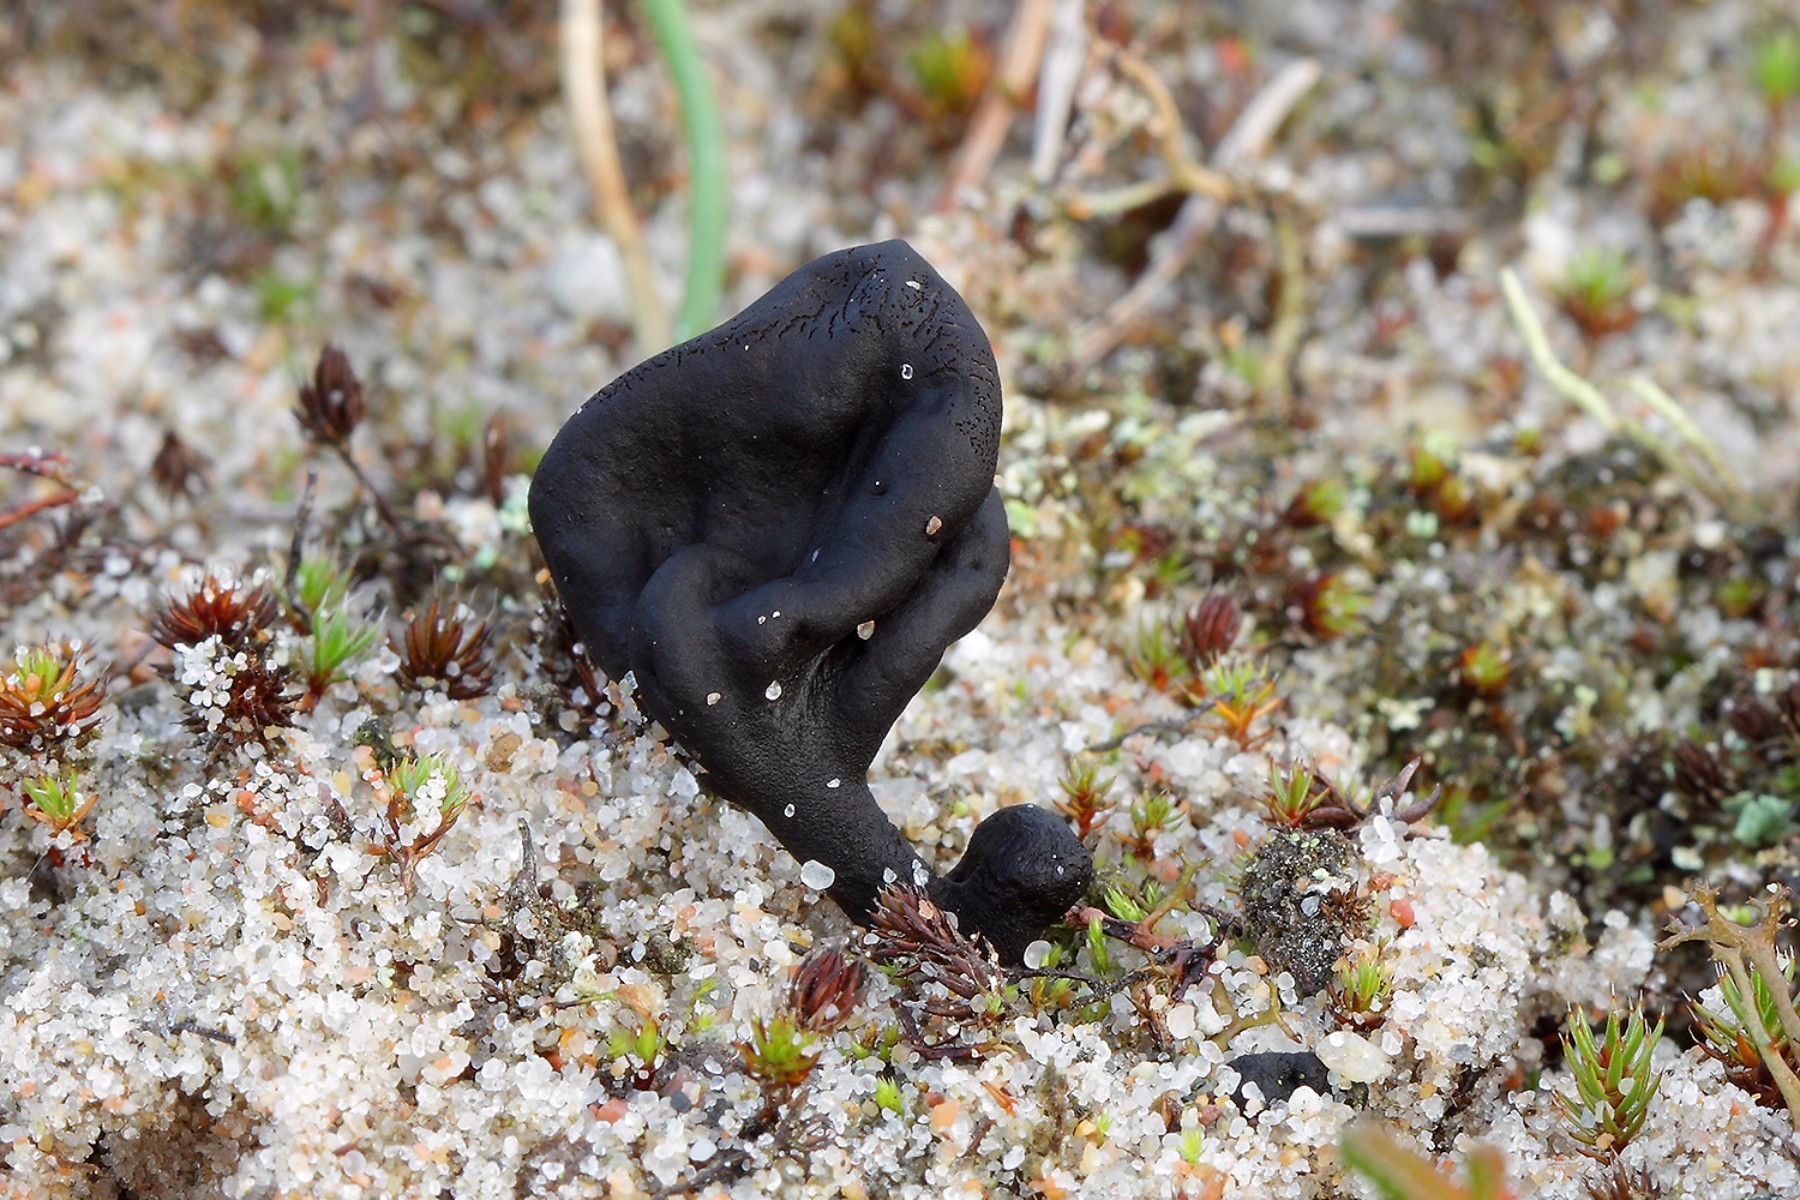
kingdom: Fungi
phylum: Ascomycota
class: Geoglossomycetes
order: Geoglossales
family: Geoglossaceae
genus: Sabuloglossum
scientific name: Sabuloglossum arenarium
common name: klit-jordtunge
